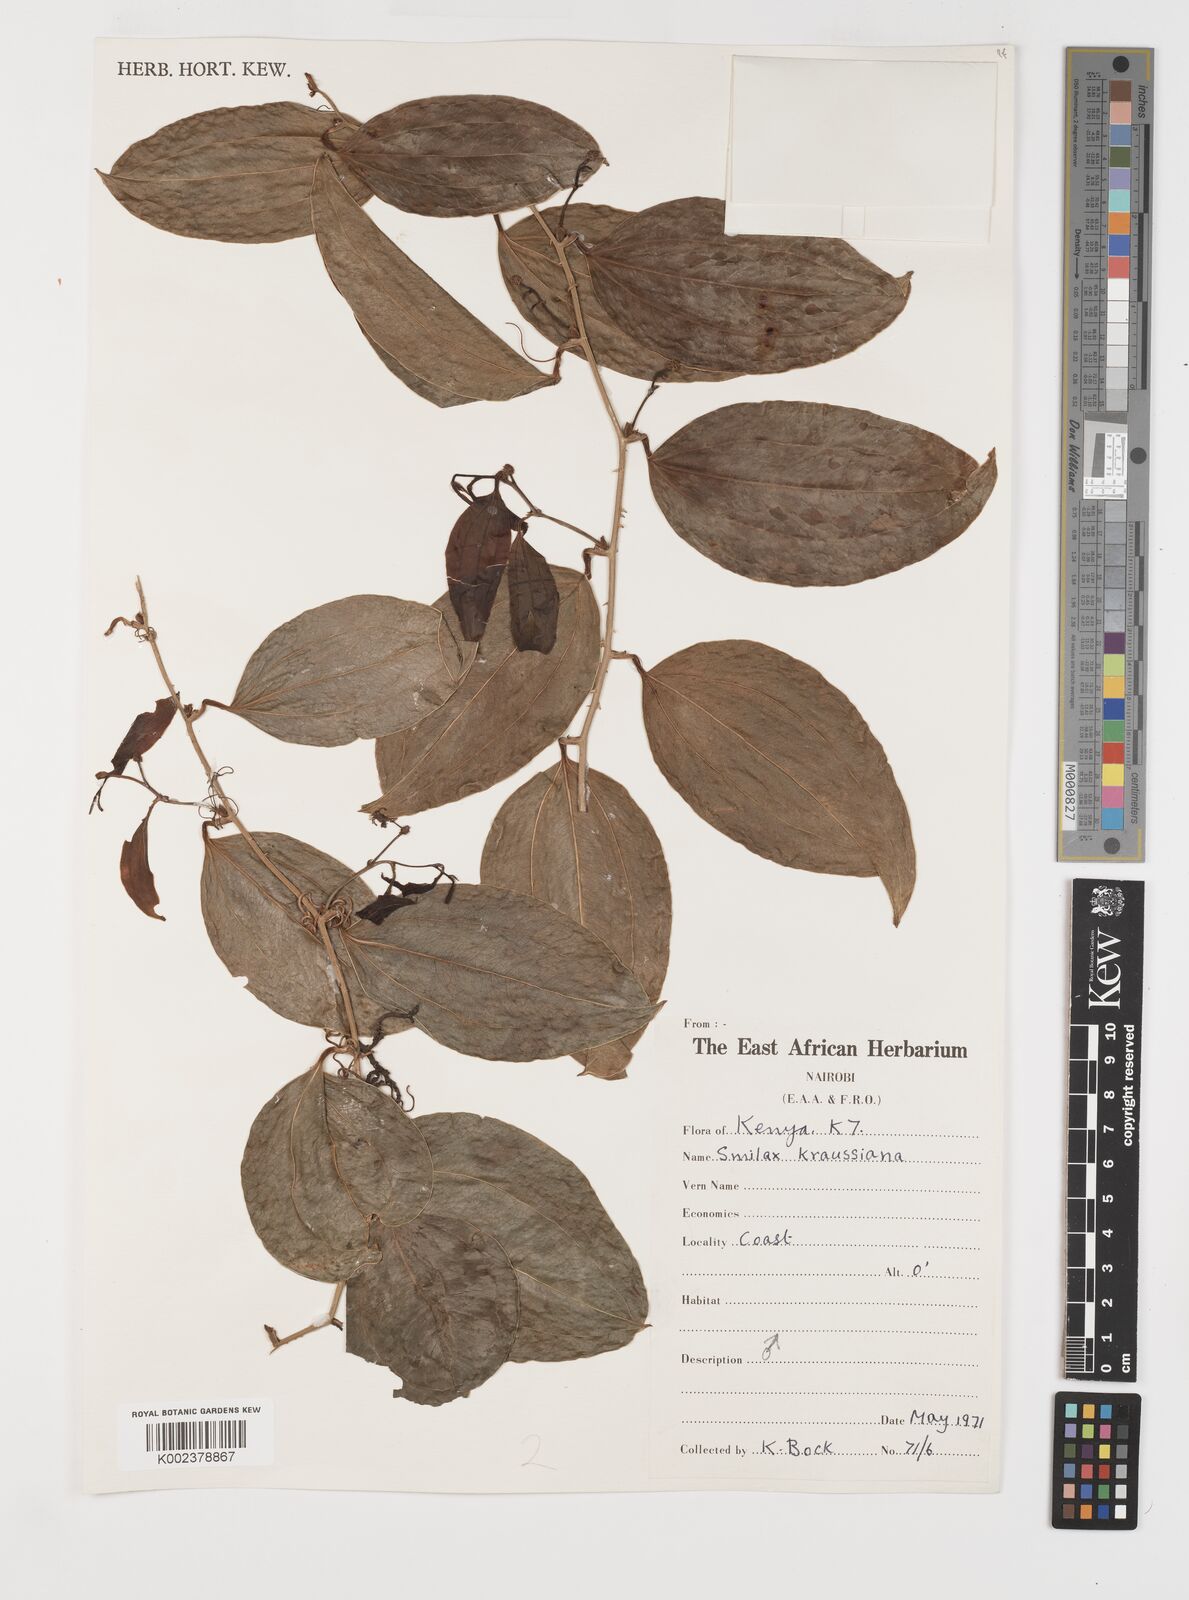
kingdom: Plantae
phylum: Tracheophyta
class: Liliopsida
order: Liliales
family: Smilacaceae
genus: Smilax
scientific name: Smilax anceps
